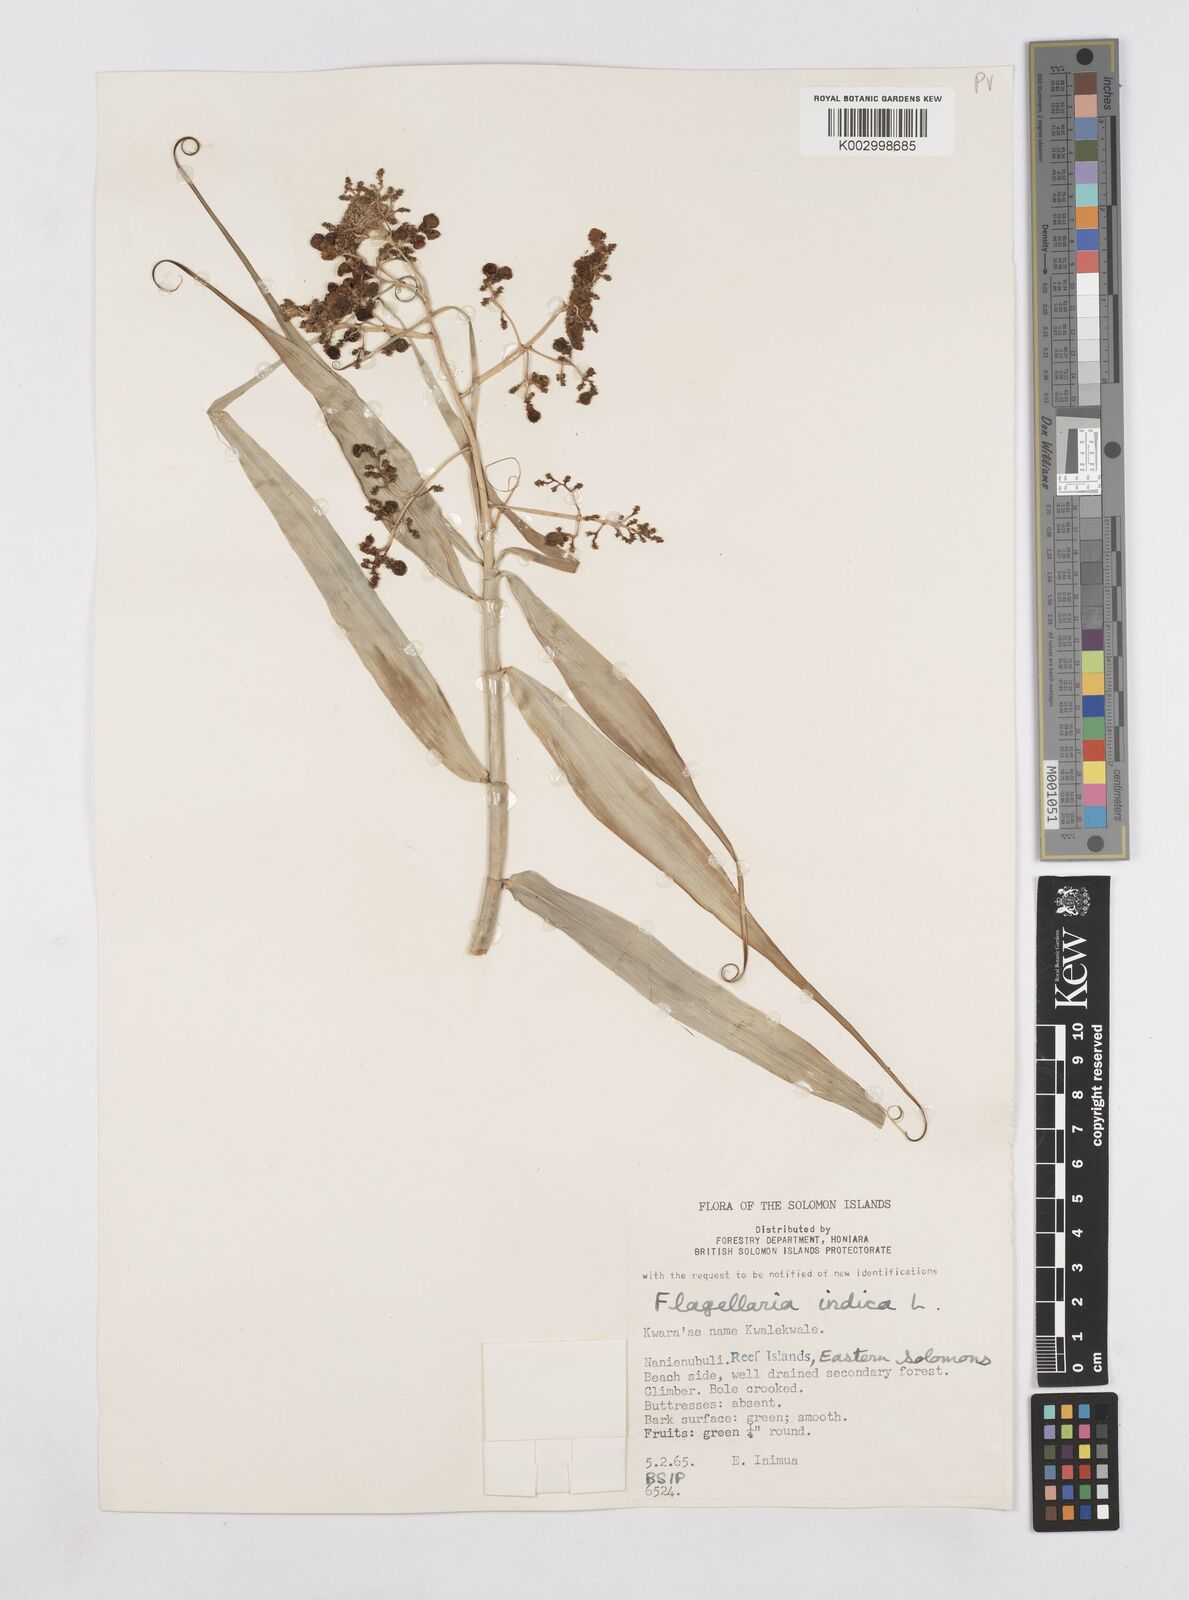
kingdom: Plantae
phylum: Tracheophyta
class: Liliopsida
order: Poales
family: Flagellariaceae
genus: Flagellaria
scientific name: Flagellaria indica
